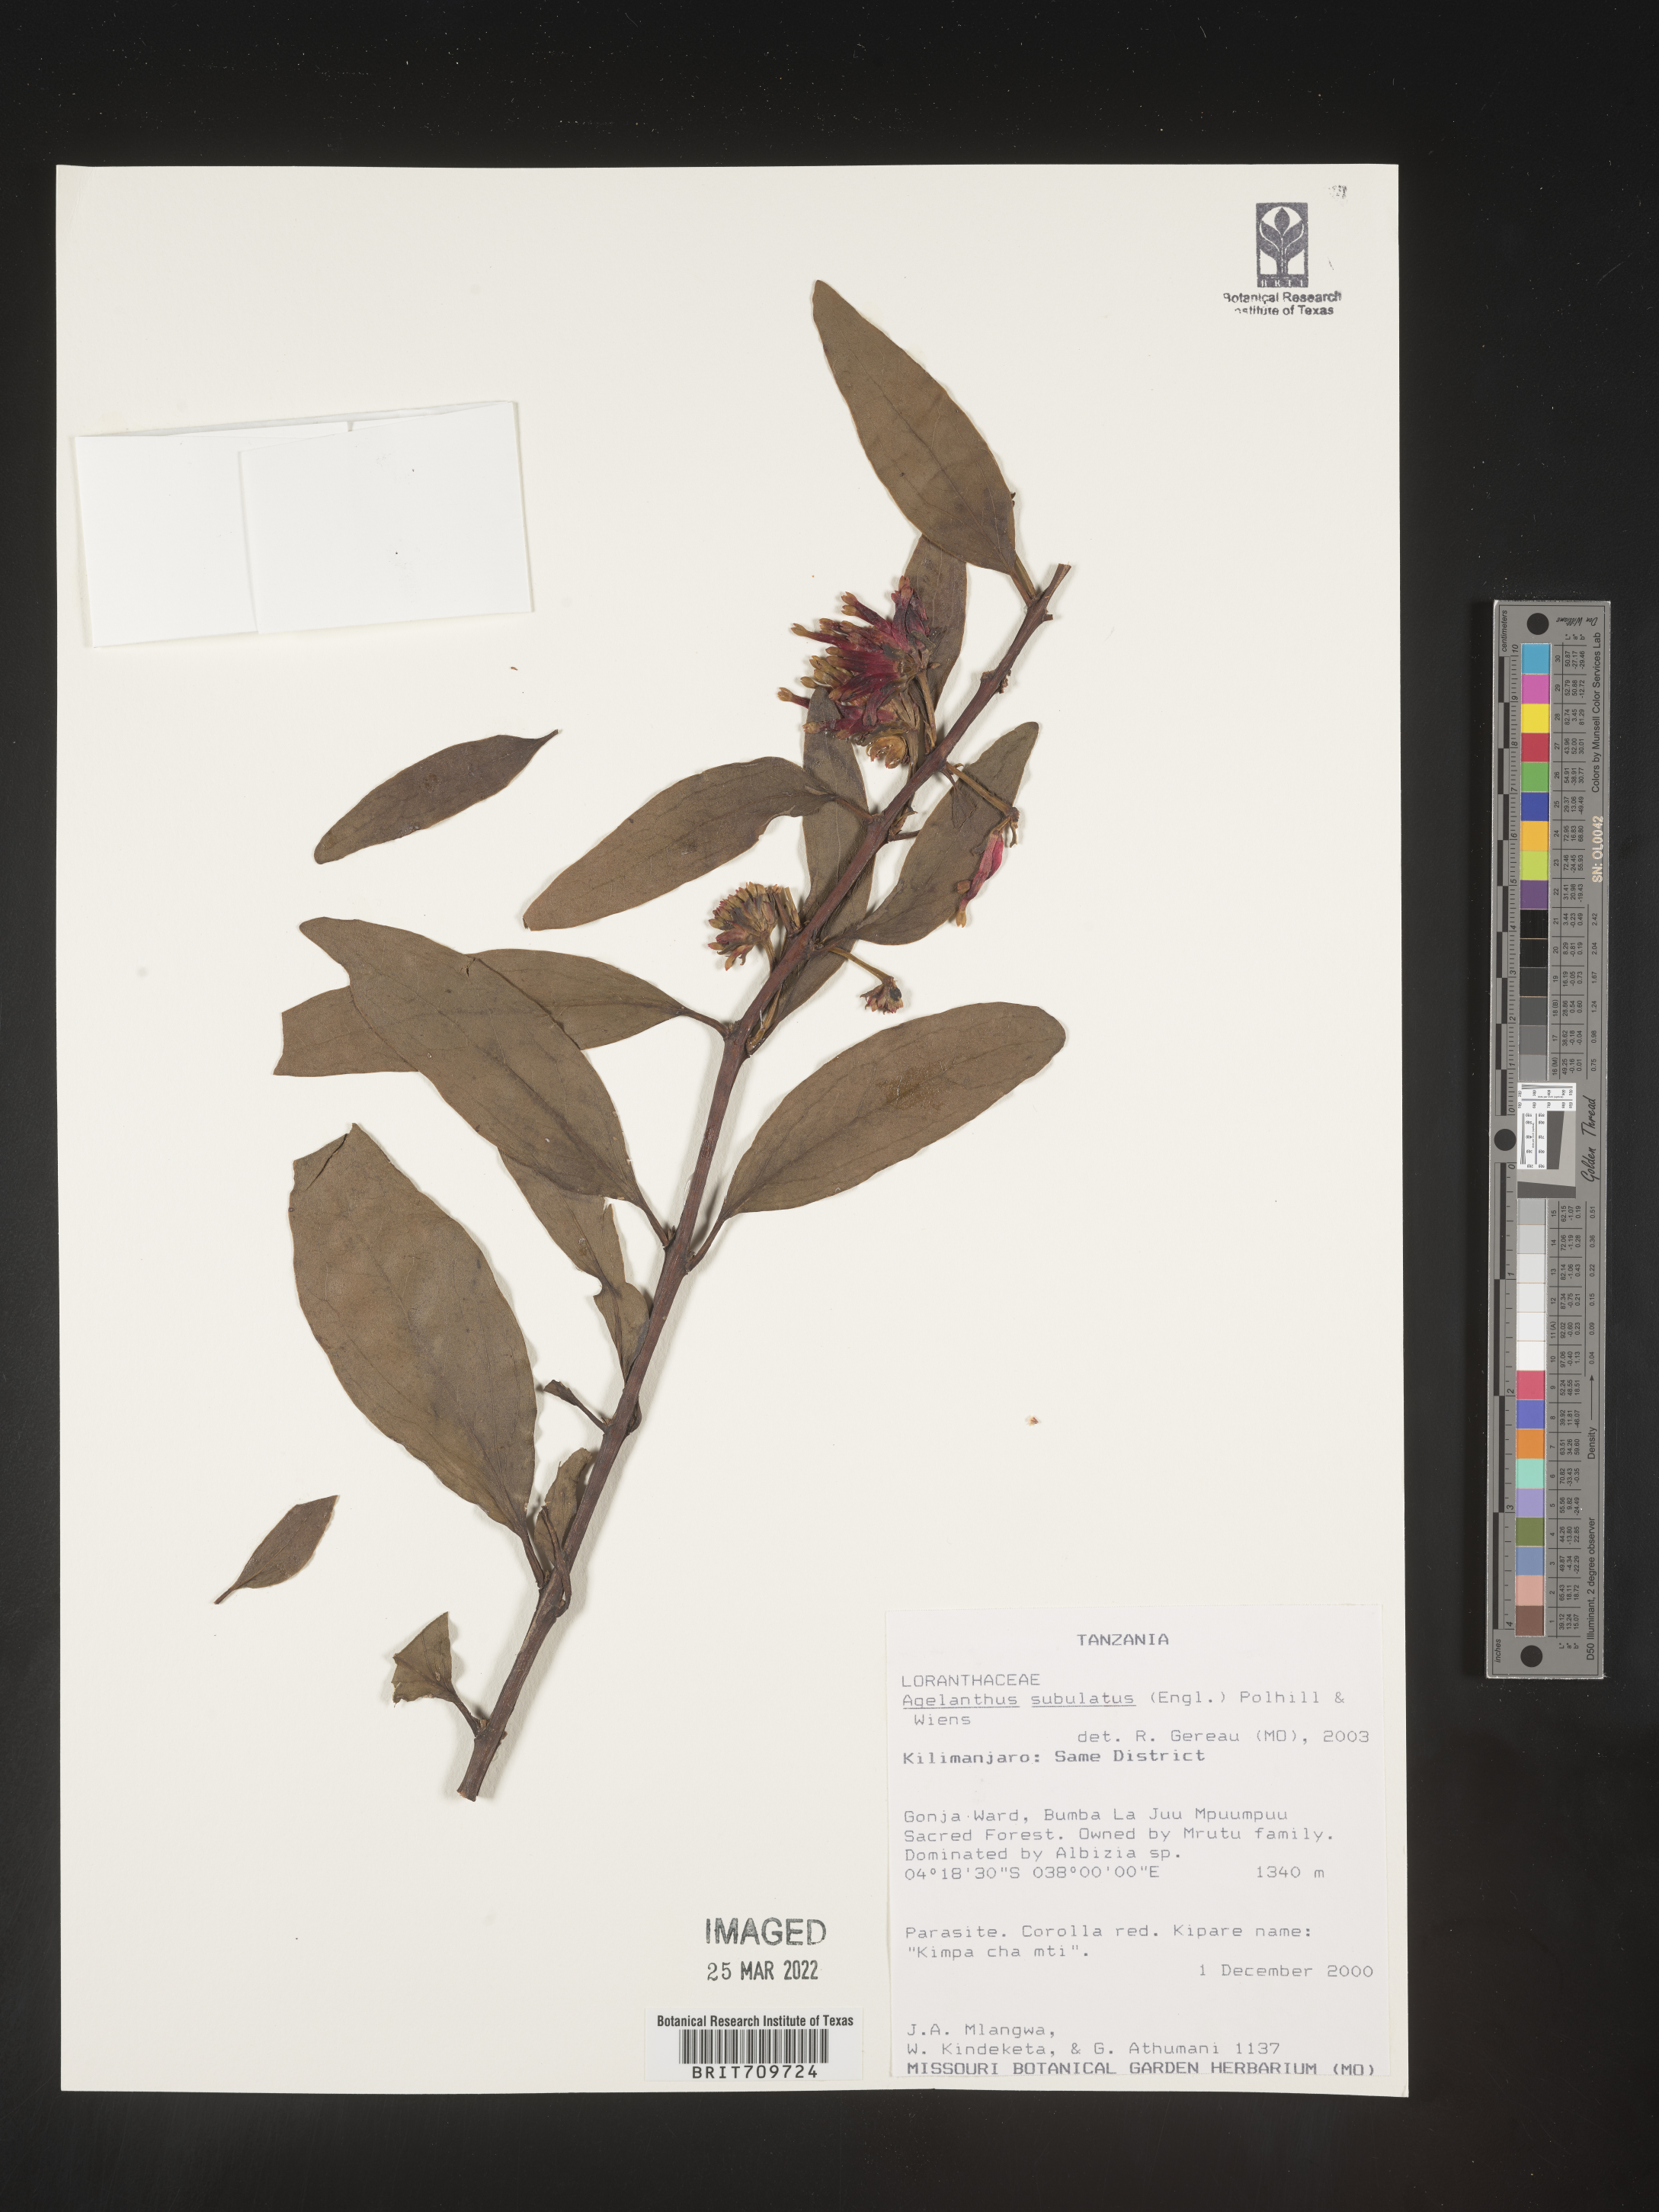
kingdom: Plantae
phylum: Tracheophyta
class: Magnoliopsida
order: Santalales
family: Loranthaceae
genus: Agelanthus
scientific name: Agelanthus
